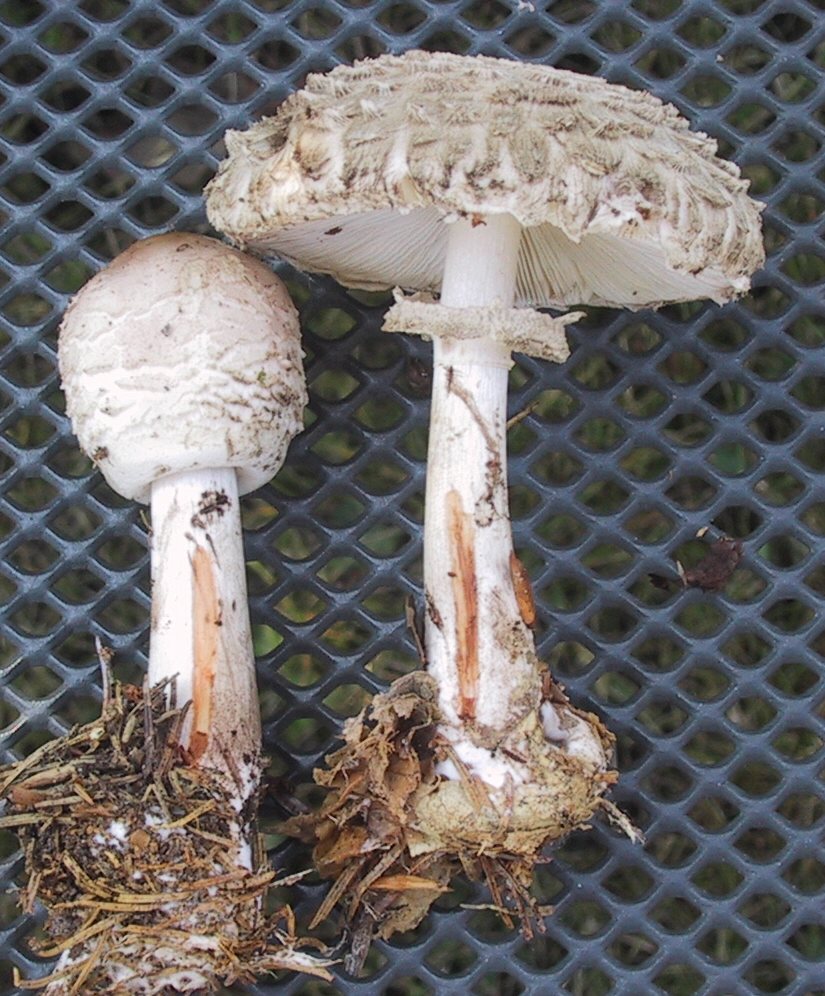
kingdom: Fungi
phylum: Basidiomycota
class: Agaricomycetes
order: Agaricales
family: Agaricaceae
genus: Chlorophyllum
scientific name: Chlorophyllum olivieri
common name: almindelig rabarberhat
